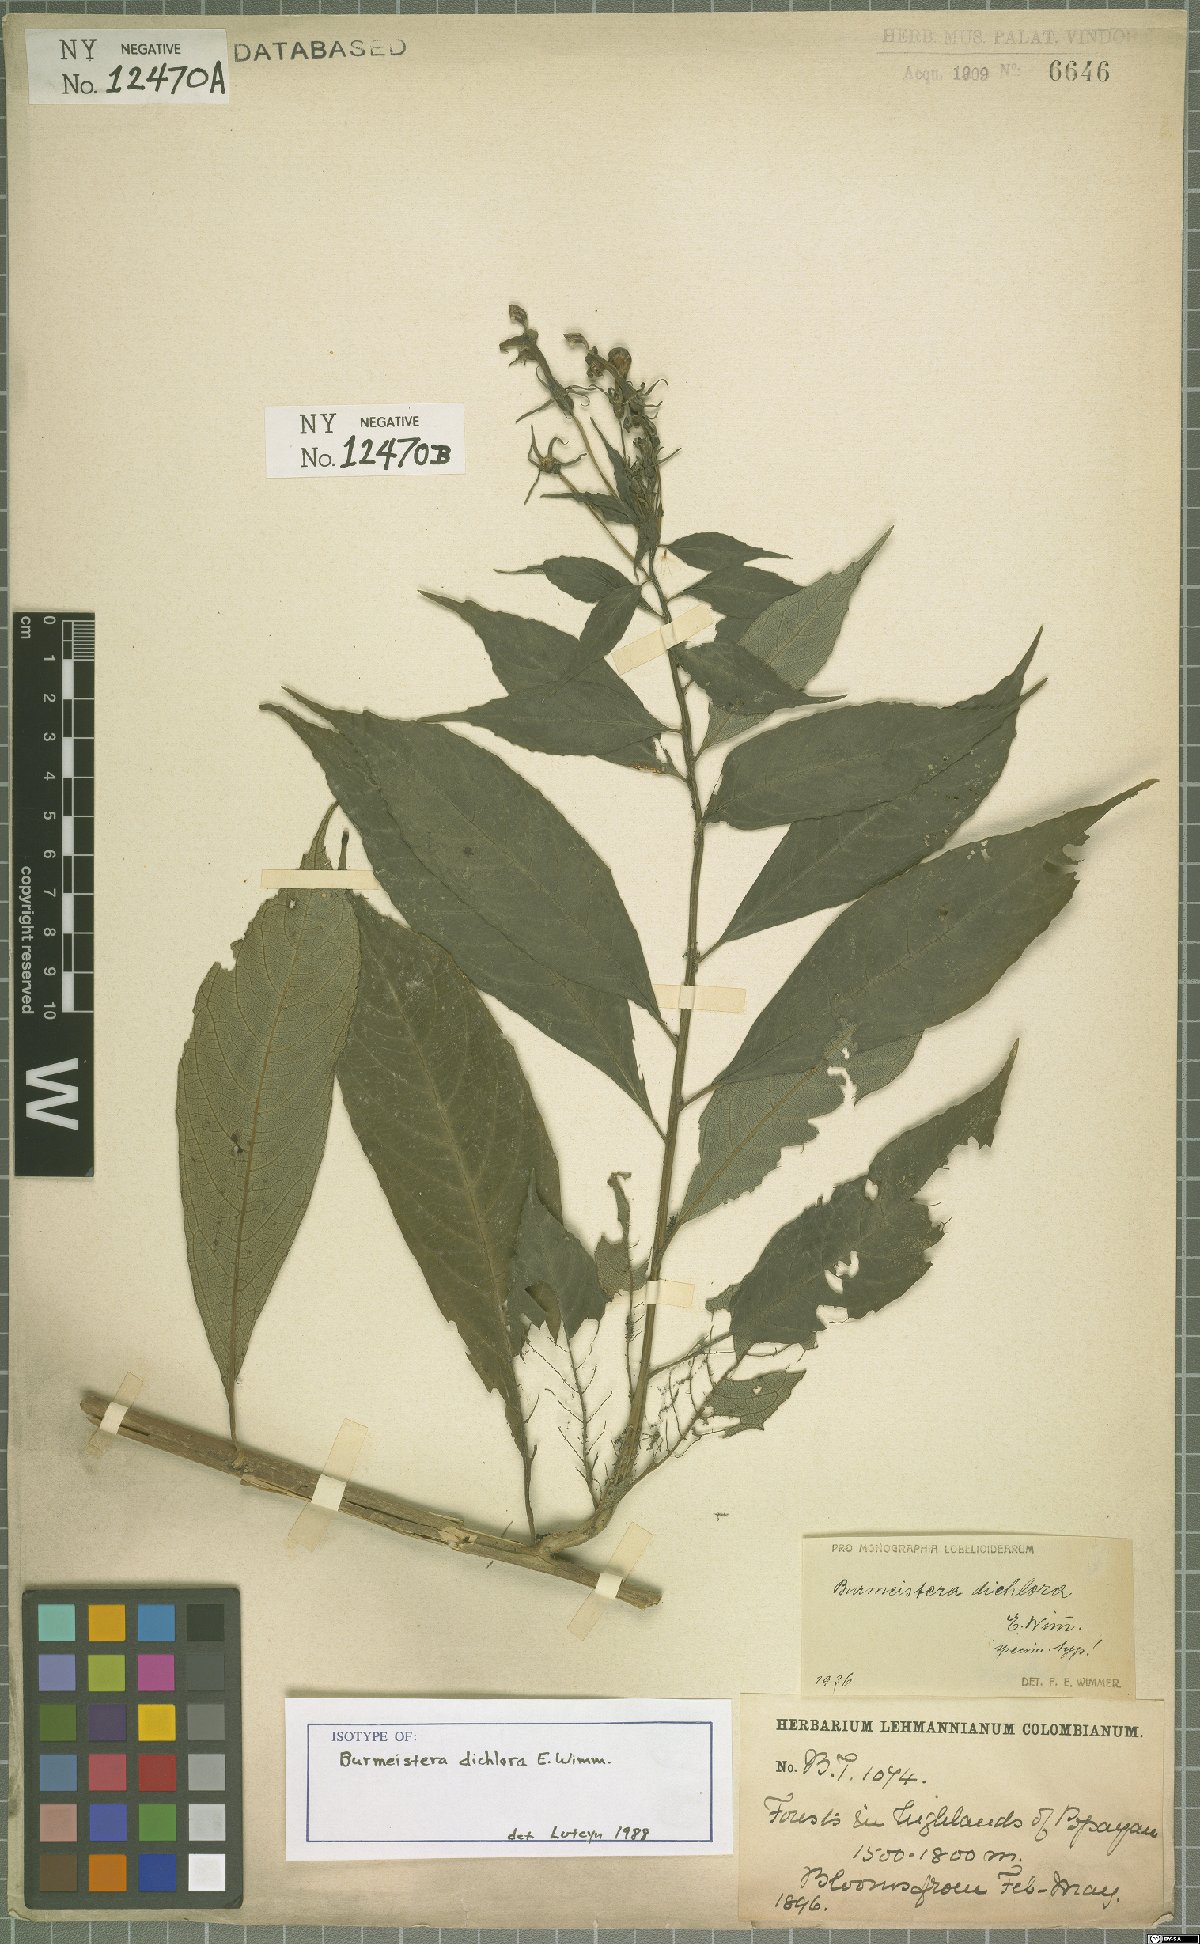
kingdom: Plantae
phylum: Tracheophyta
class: Magnoliopsida
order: Asterales
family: Campanulaceae
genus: Burmeistera
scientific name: Burmeistera dichlora
